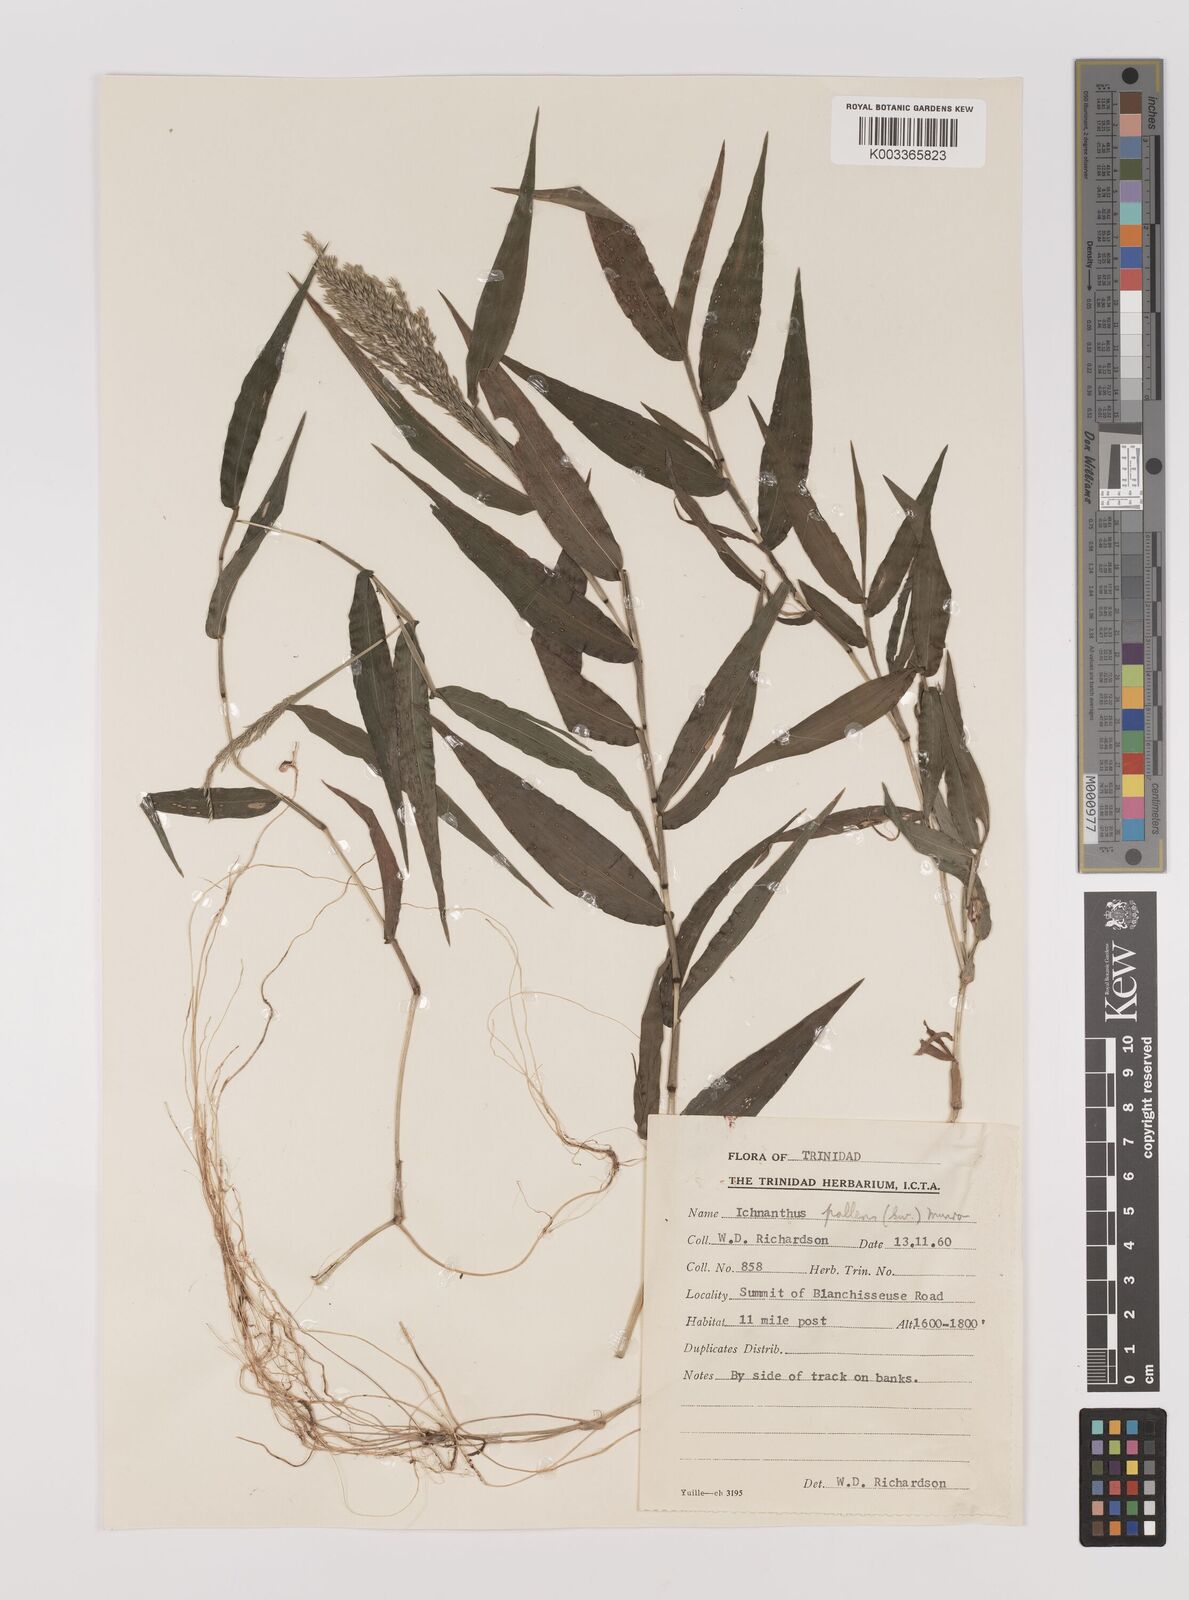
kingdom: Plantae
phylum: Tracheophyta
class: Liliopsida
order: Poales
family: Poaceae
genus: Ichnanthus
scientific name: Ichnanthus pallens
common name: Water grass
